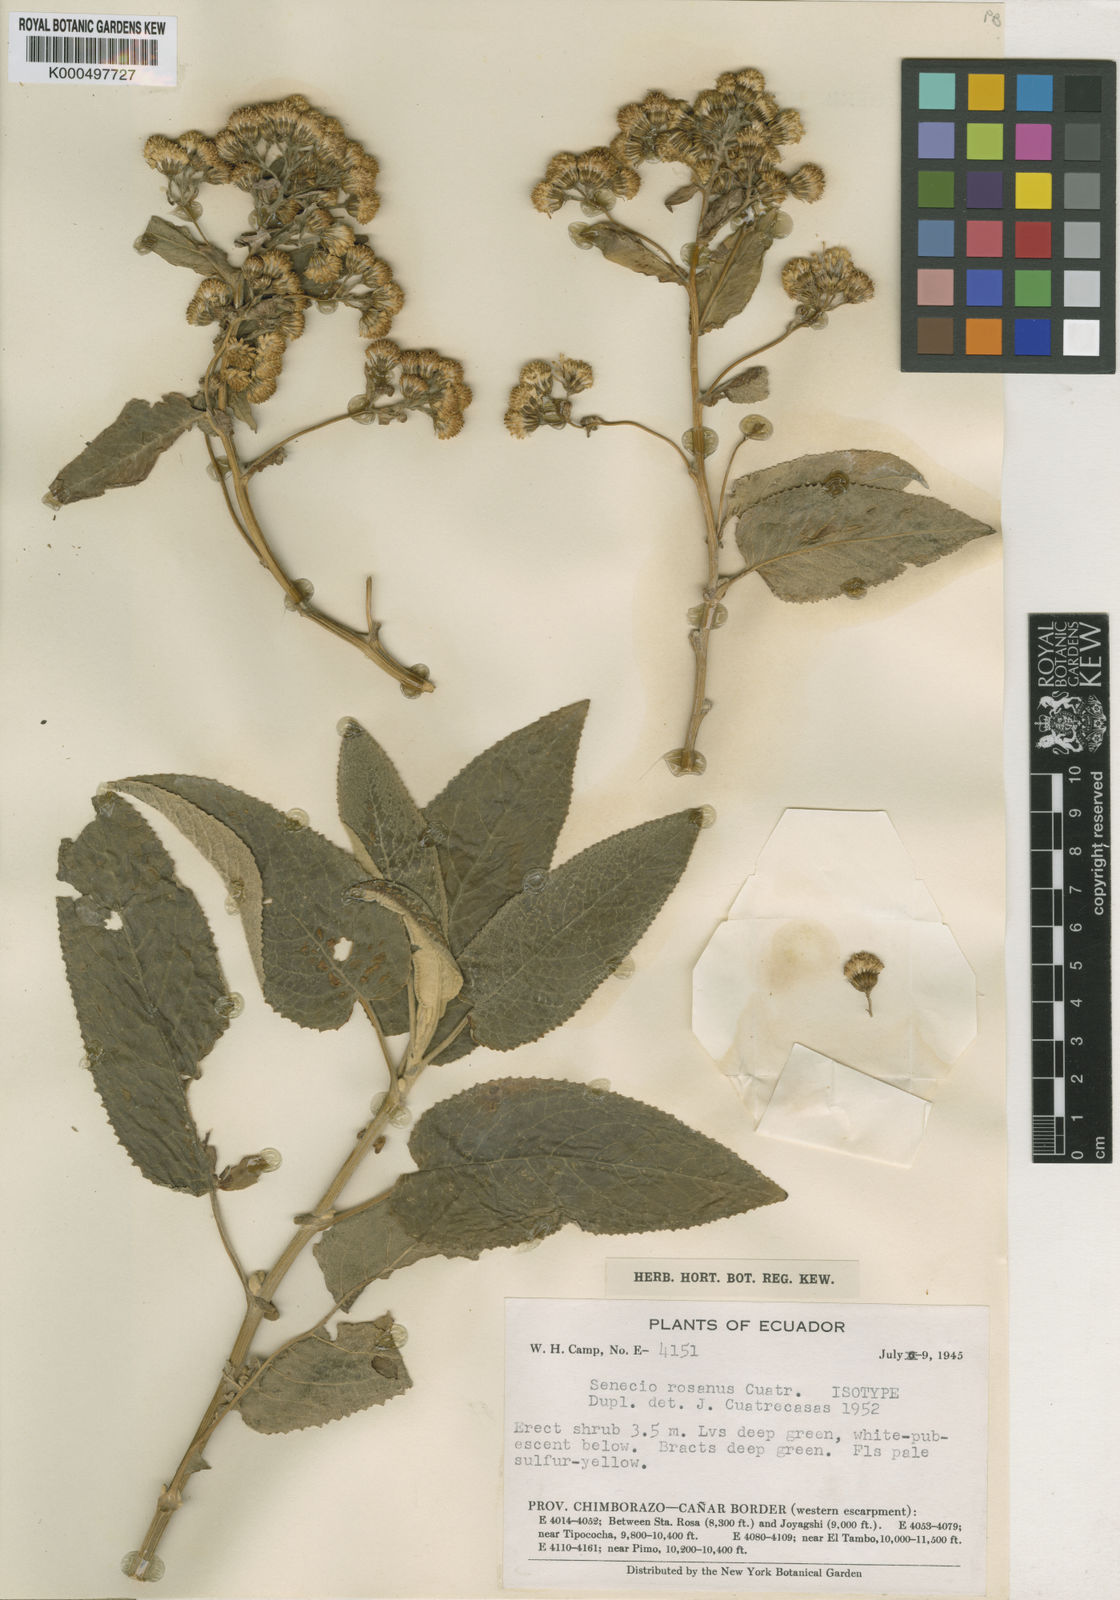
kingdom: Plantae
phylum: Tracheophyta
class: Magnoliopsida
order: Asterales
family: Asteraceae
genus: Aetheolaena
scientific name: Aetheolaena rosana
